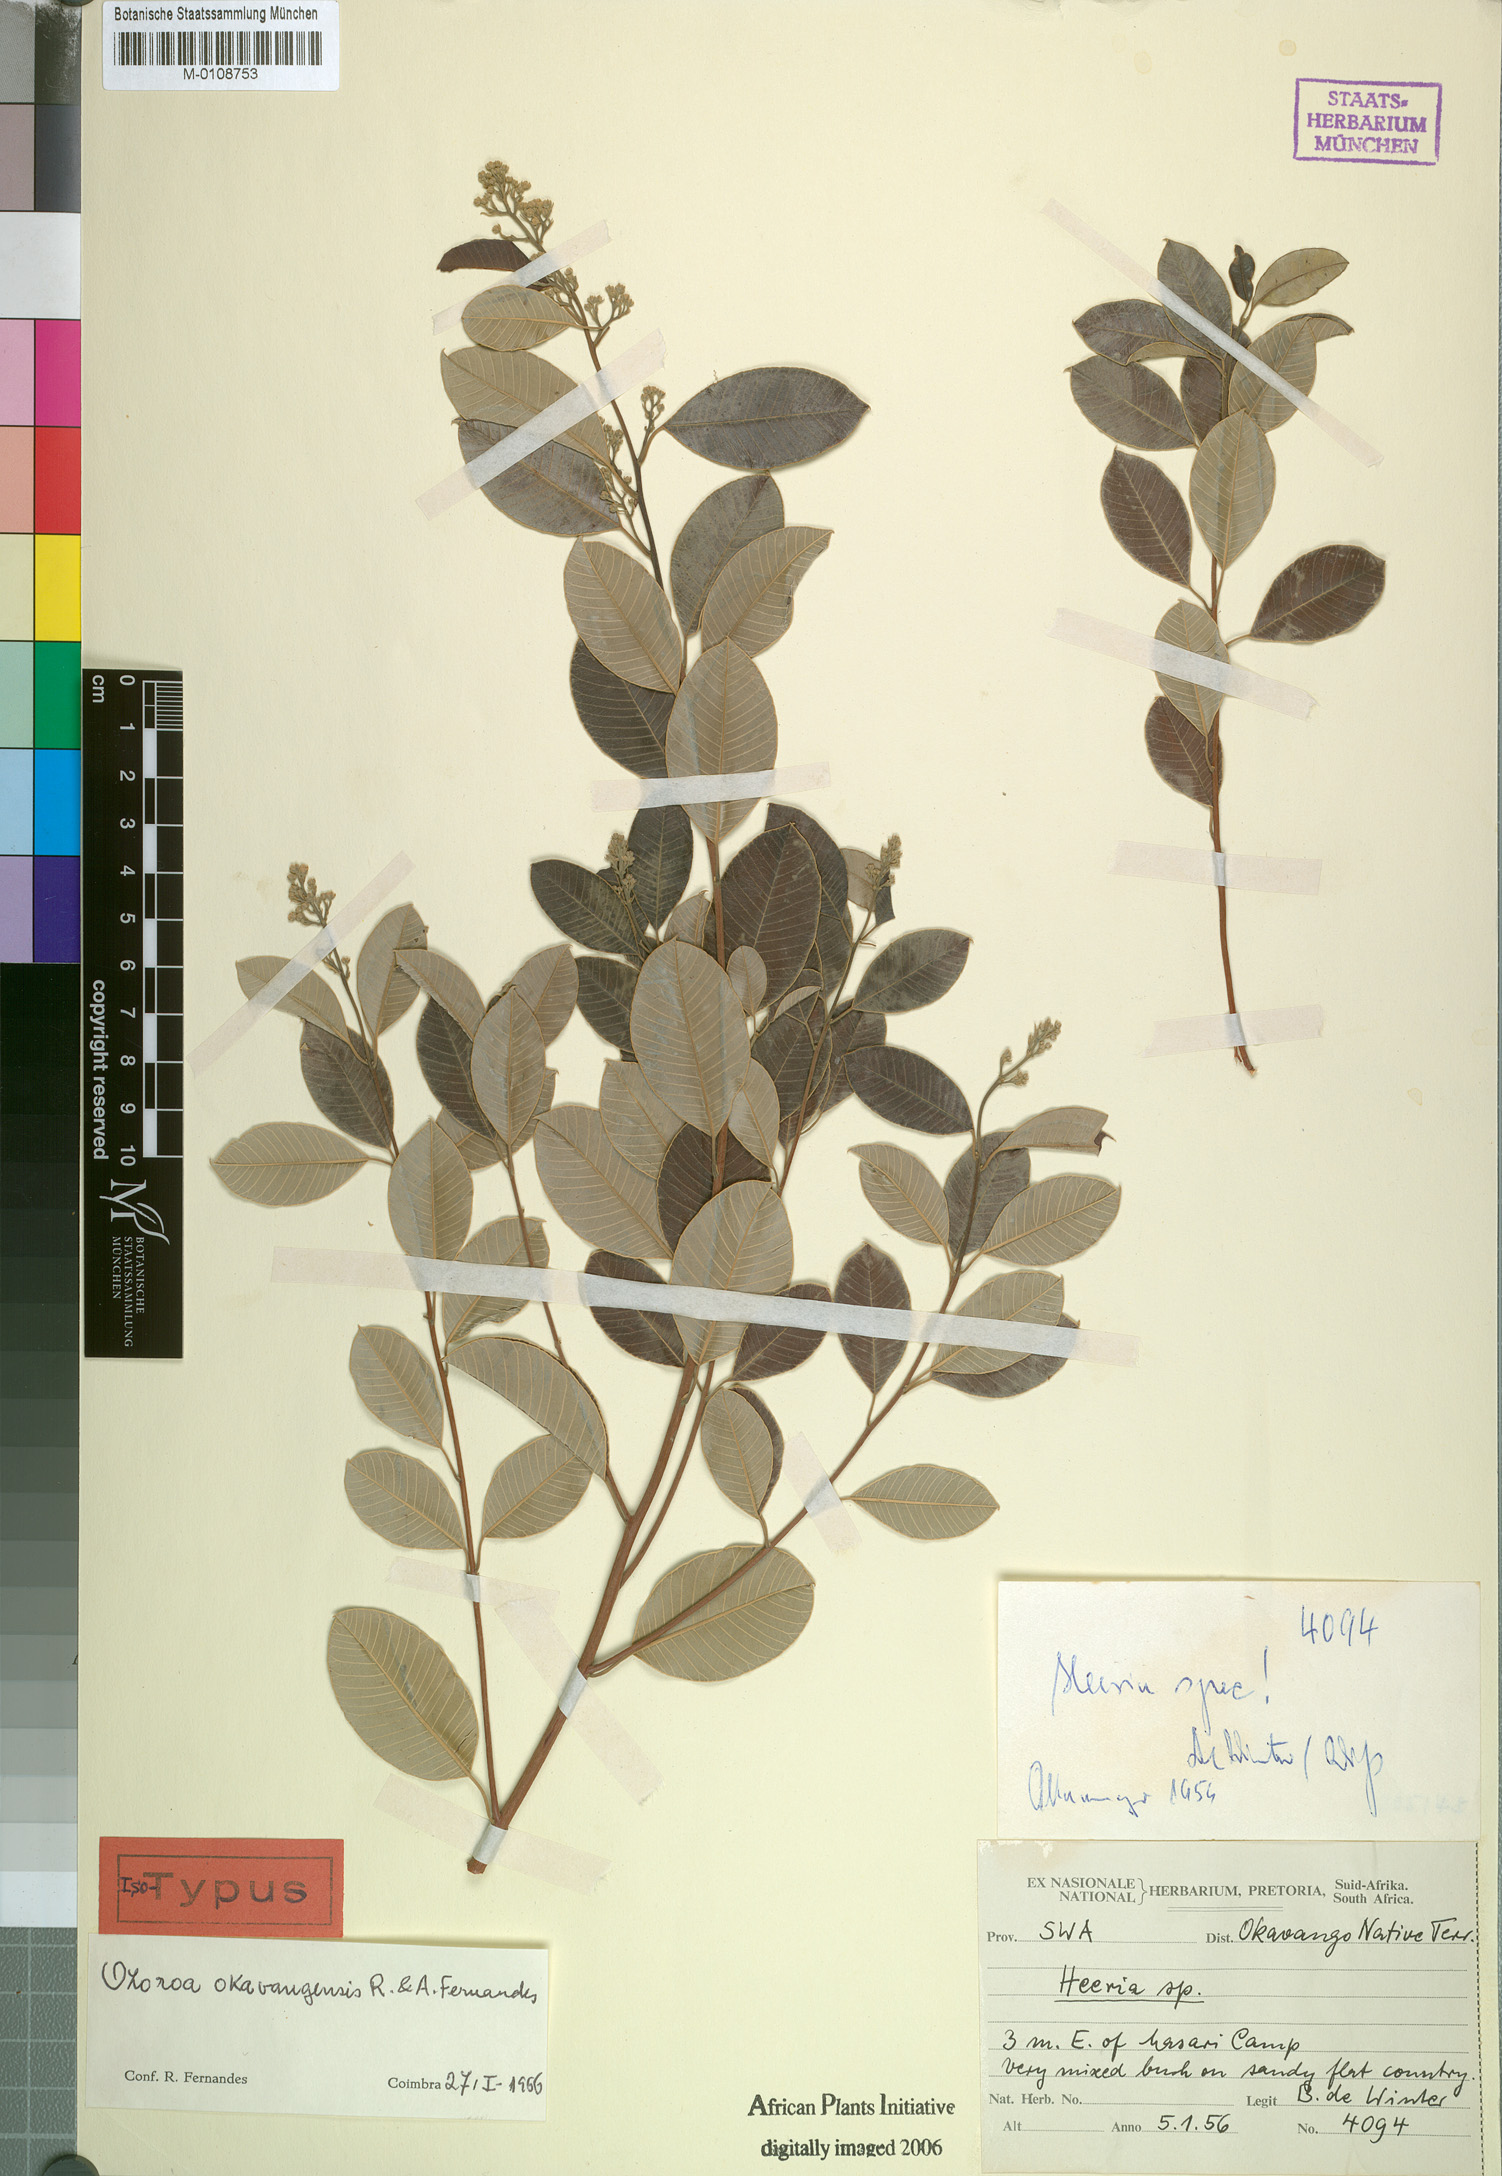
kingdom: Plantae
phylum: Tracheophyta
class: Magnoliopsida
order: Sapindales
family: Anacardiaceae
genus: Ozoroa
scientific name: Ozoroa okavangensis
